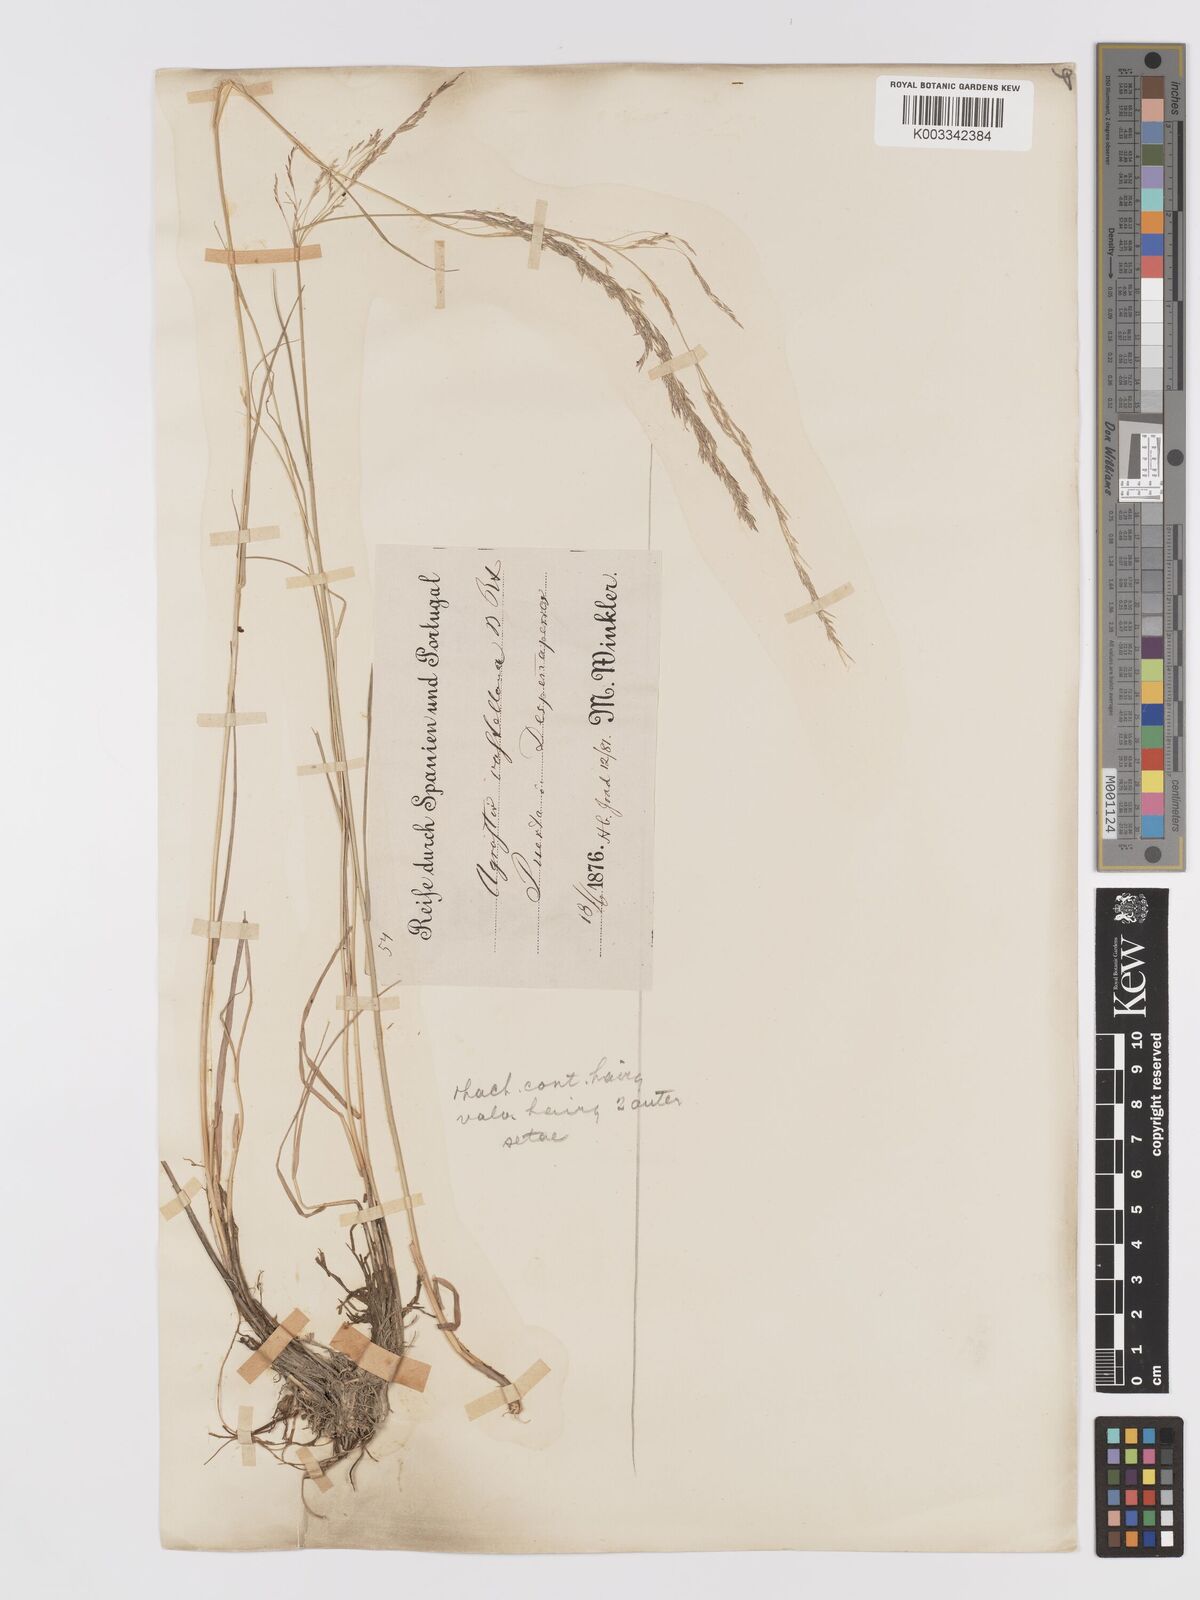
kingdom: Plantae
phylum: Tracheophyta
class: Liliopsida
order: Poales
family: Poaceae
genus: Agrostis
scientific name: Agrostis castriferrei
